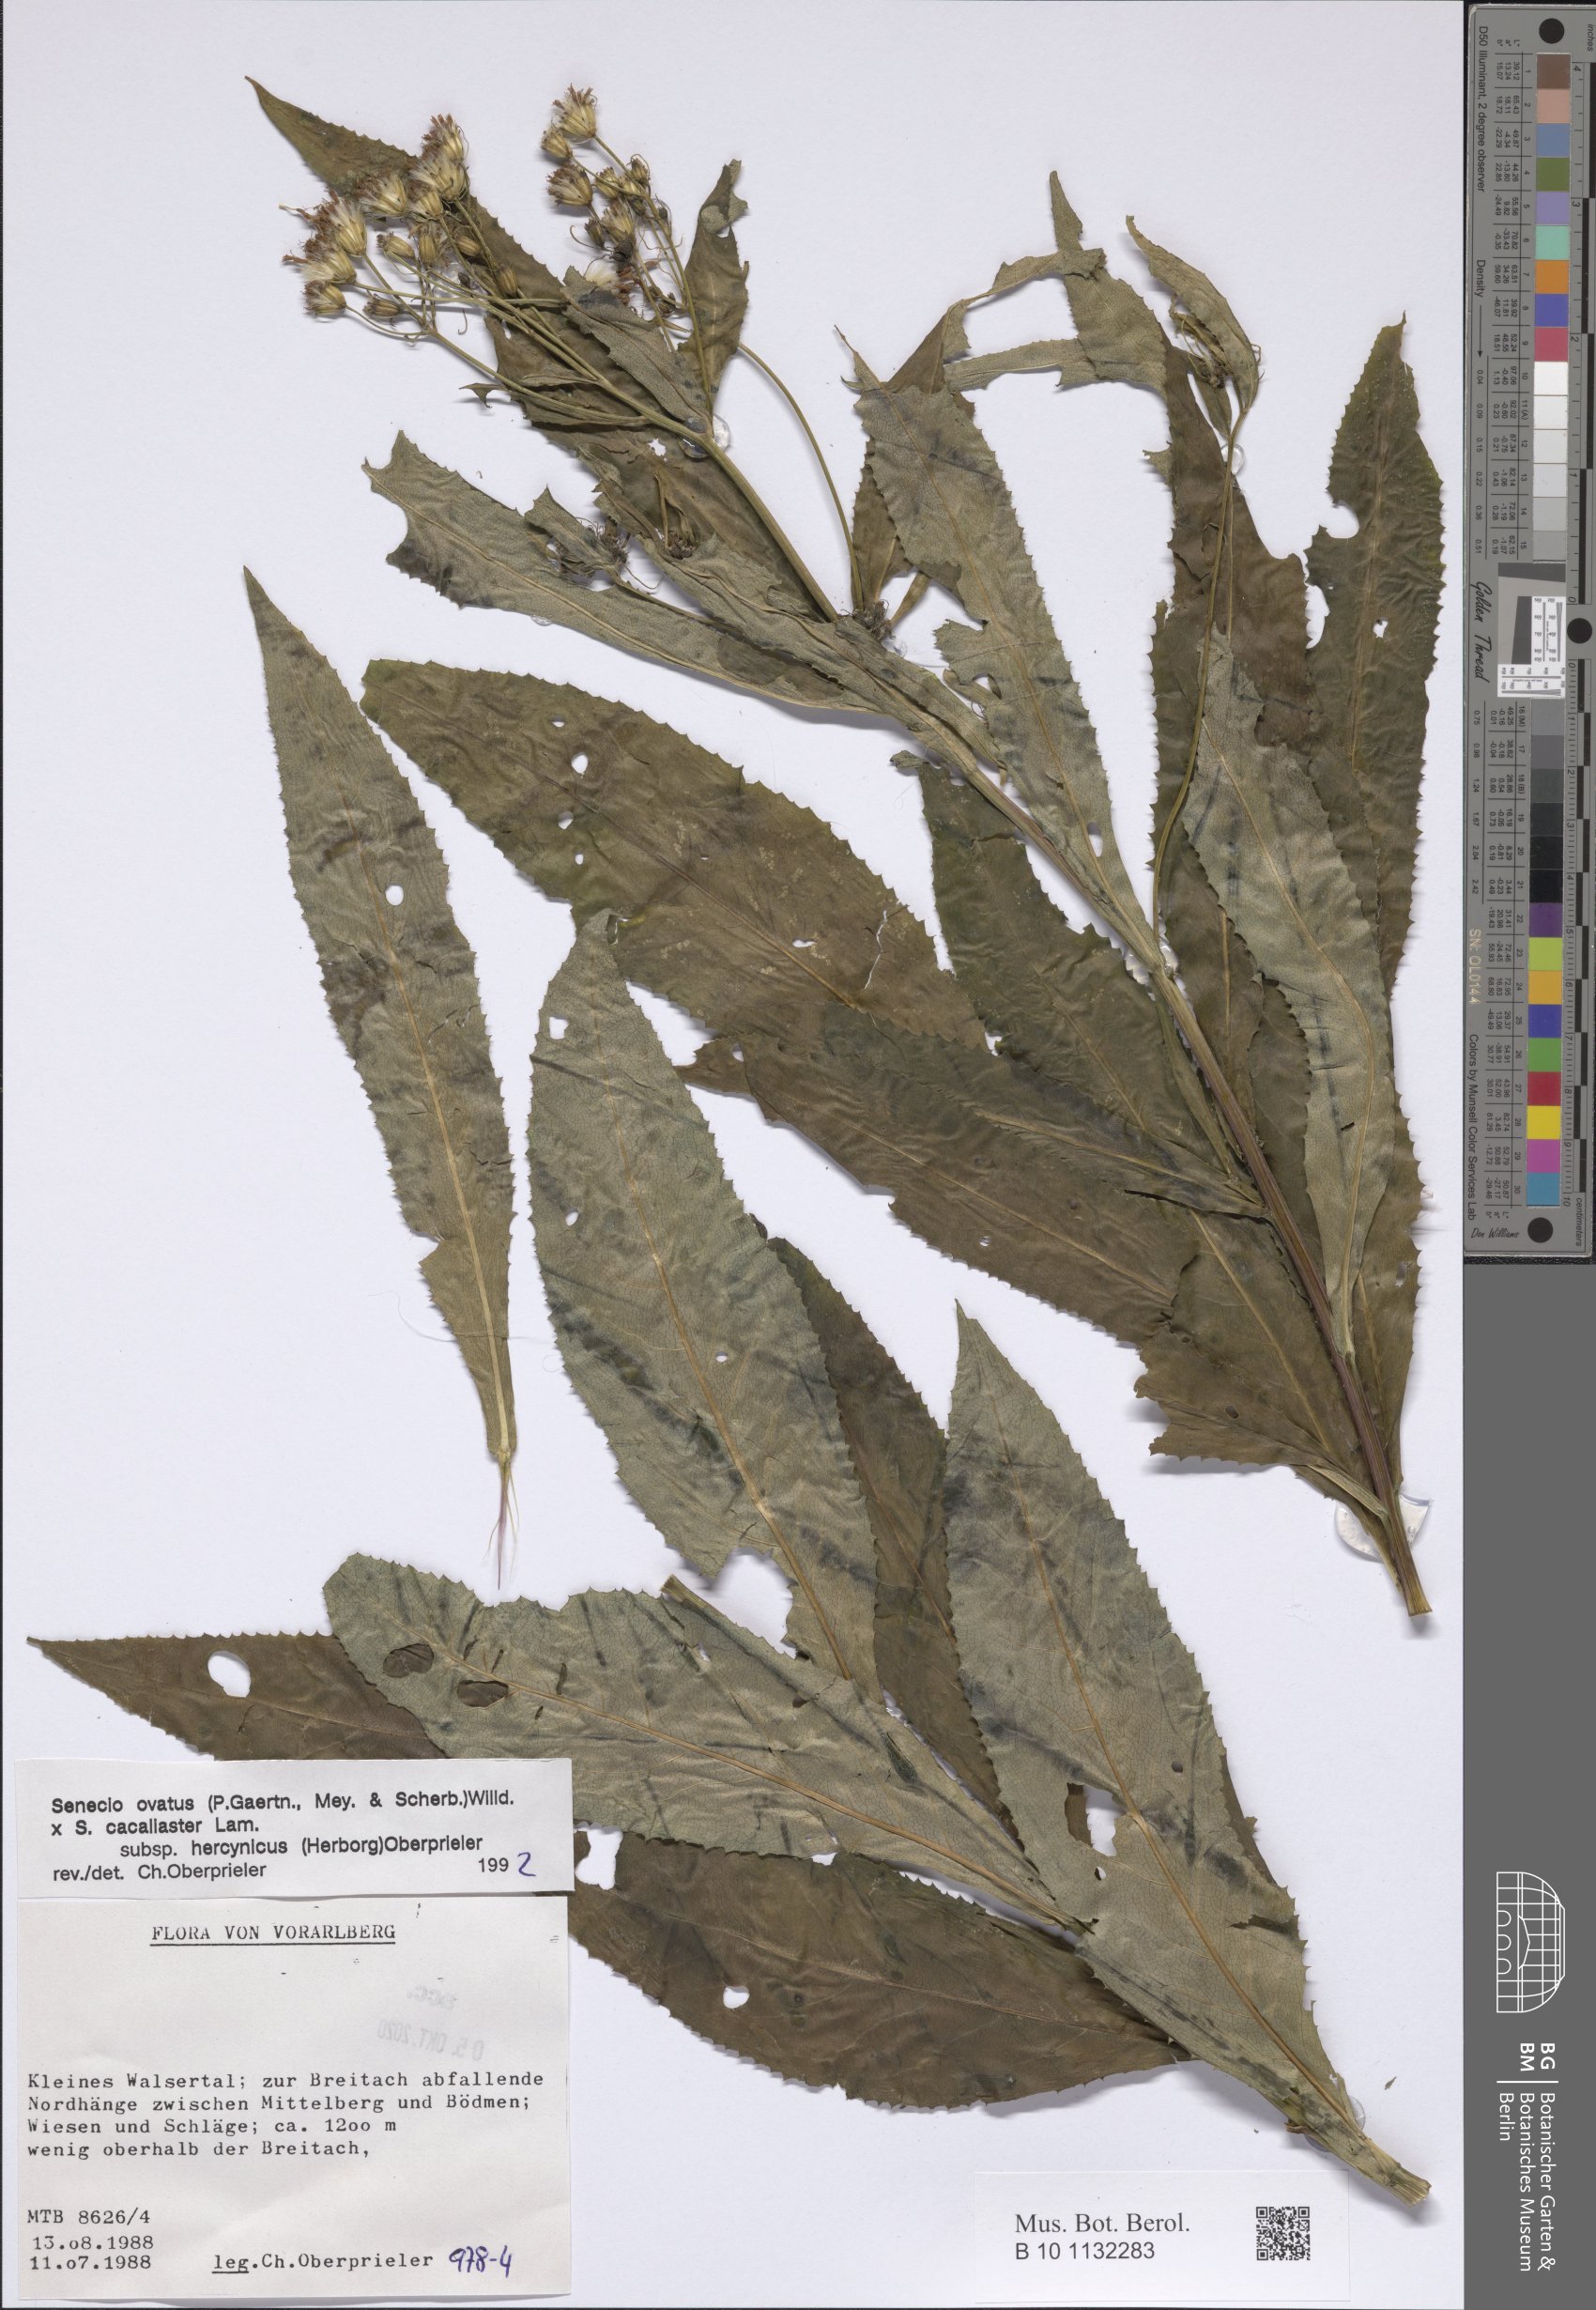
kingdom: Plantae
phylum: Tracheophyta
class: Magnoliopsida
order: Asterales
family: Asteraceae
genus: Senecio
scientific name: Senecio ovatus
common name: Wood ragwort
